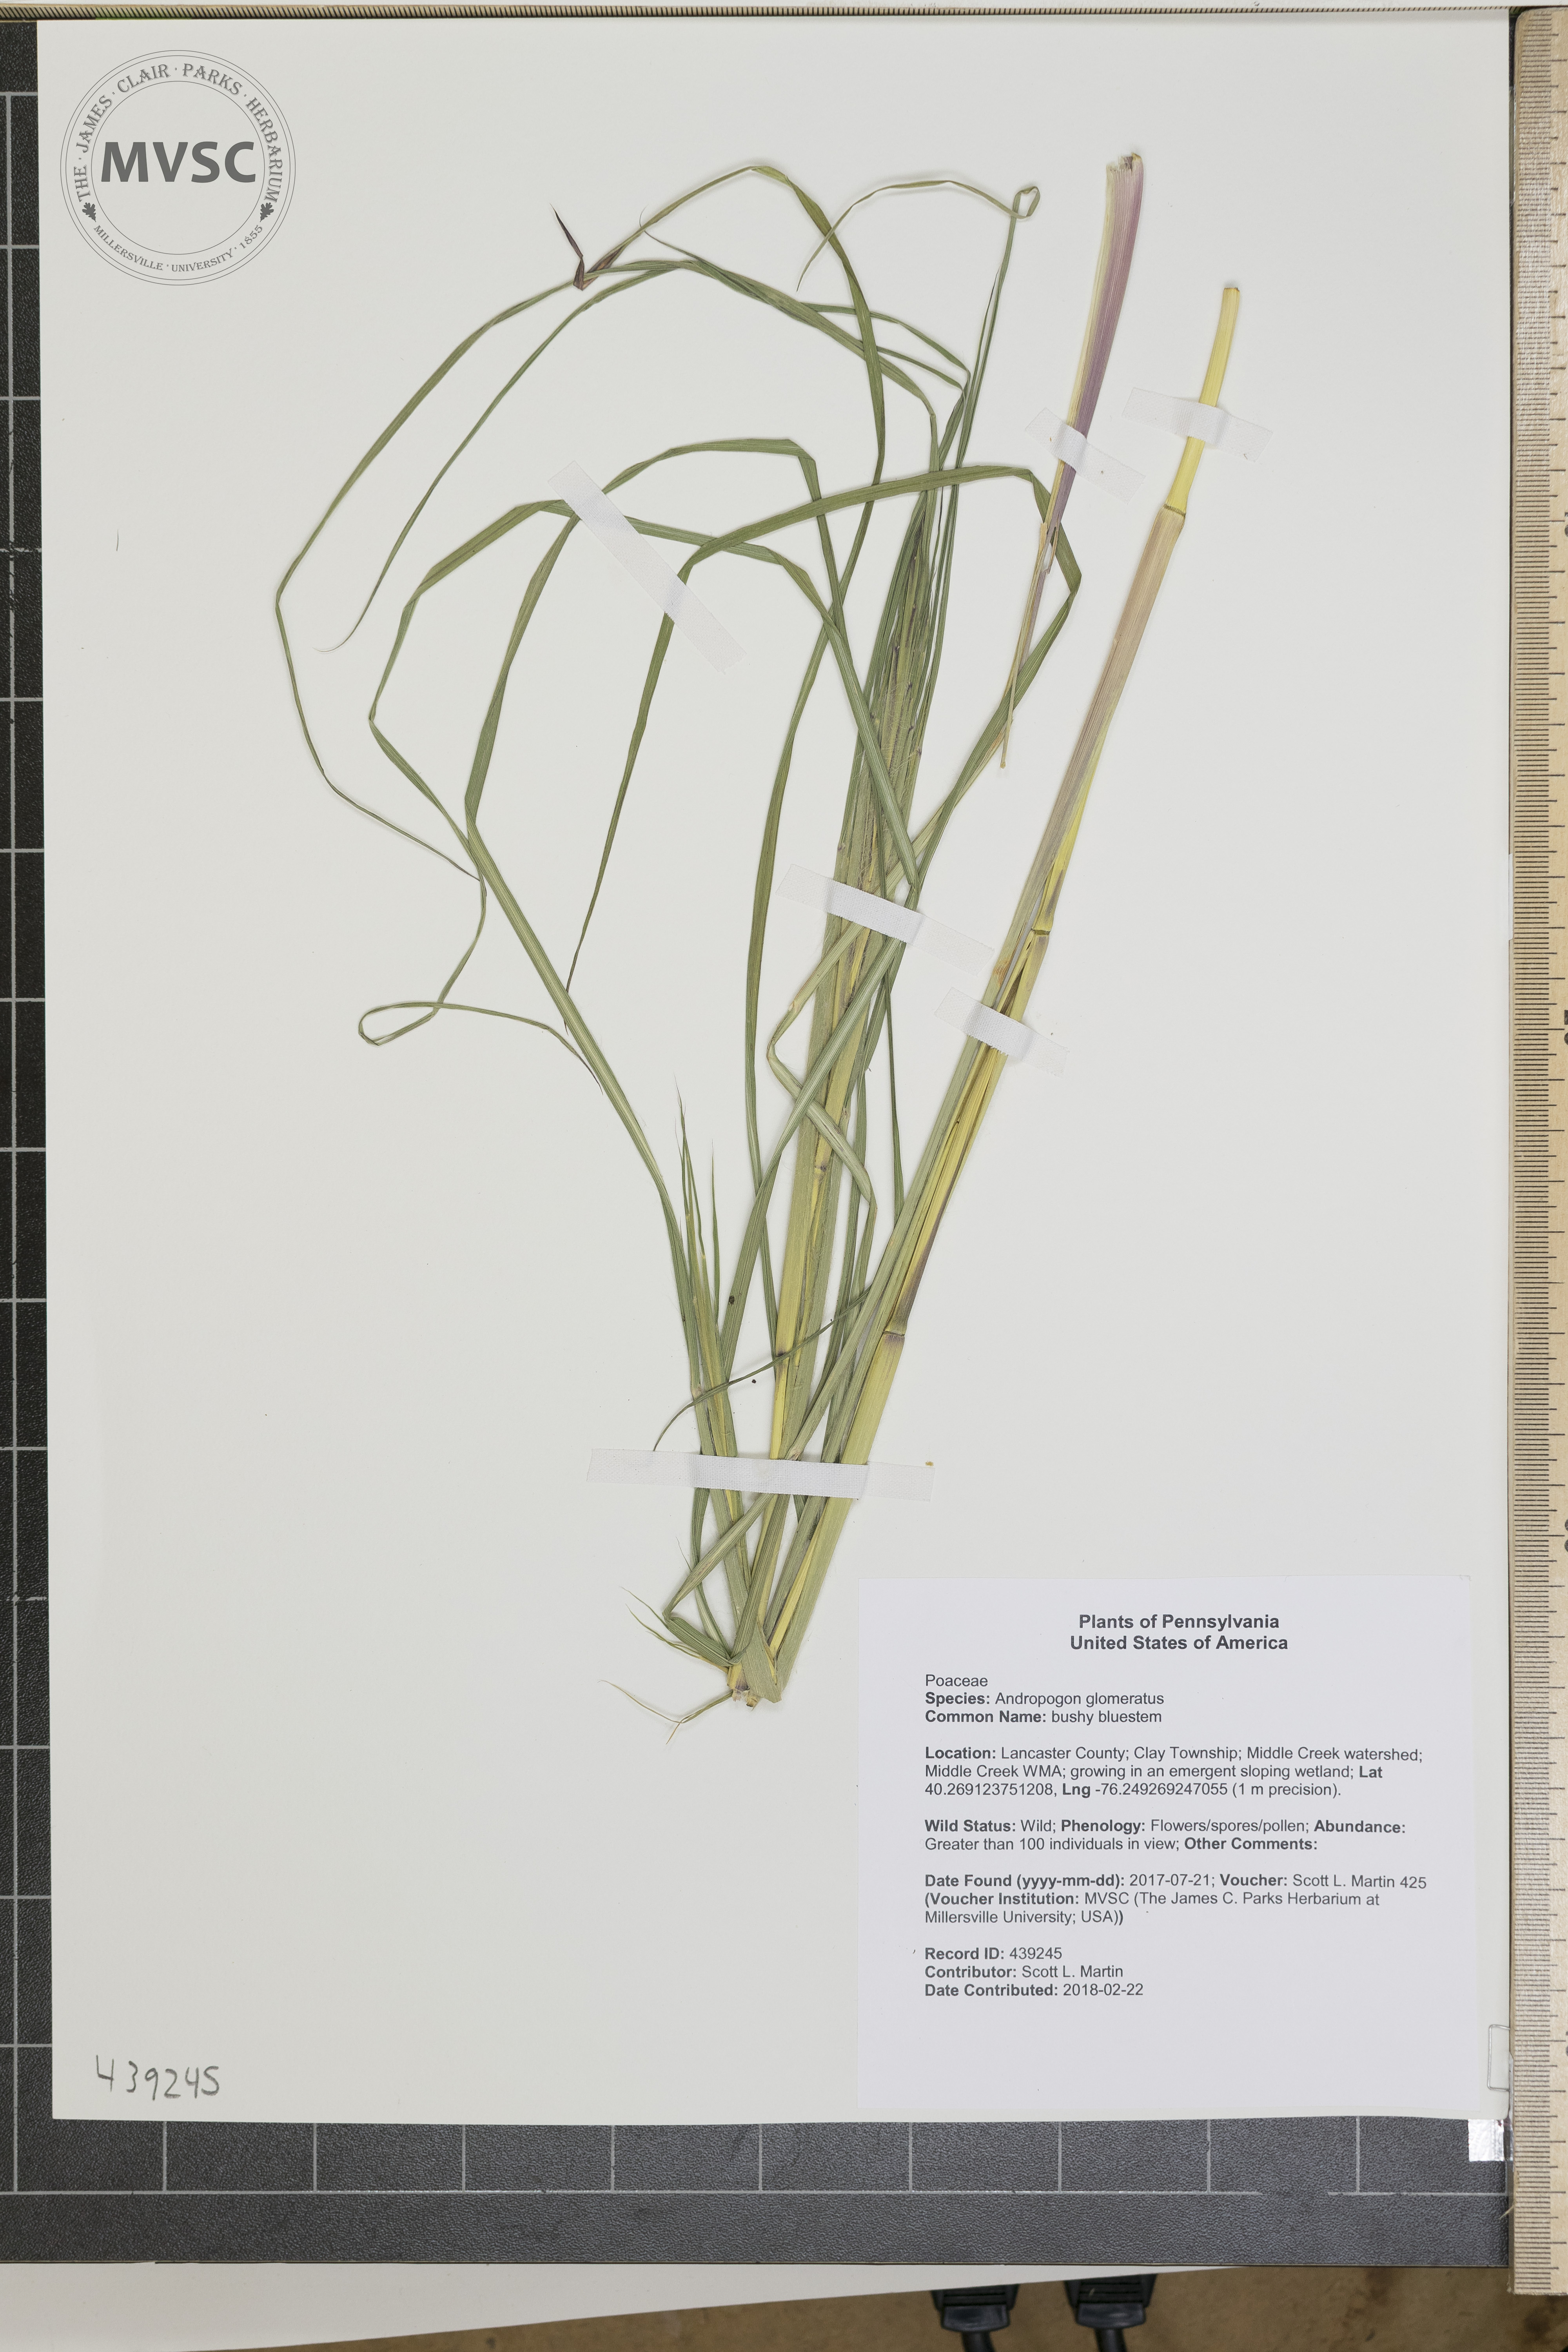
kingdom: Plantae
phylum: Tracheophyta
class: Liliopsida
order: Poales
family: Poaceae
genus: Andropogon
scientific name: Andropogon glomeratus
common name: bushy bluestem
